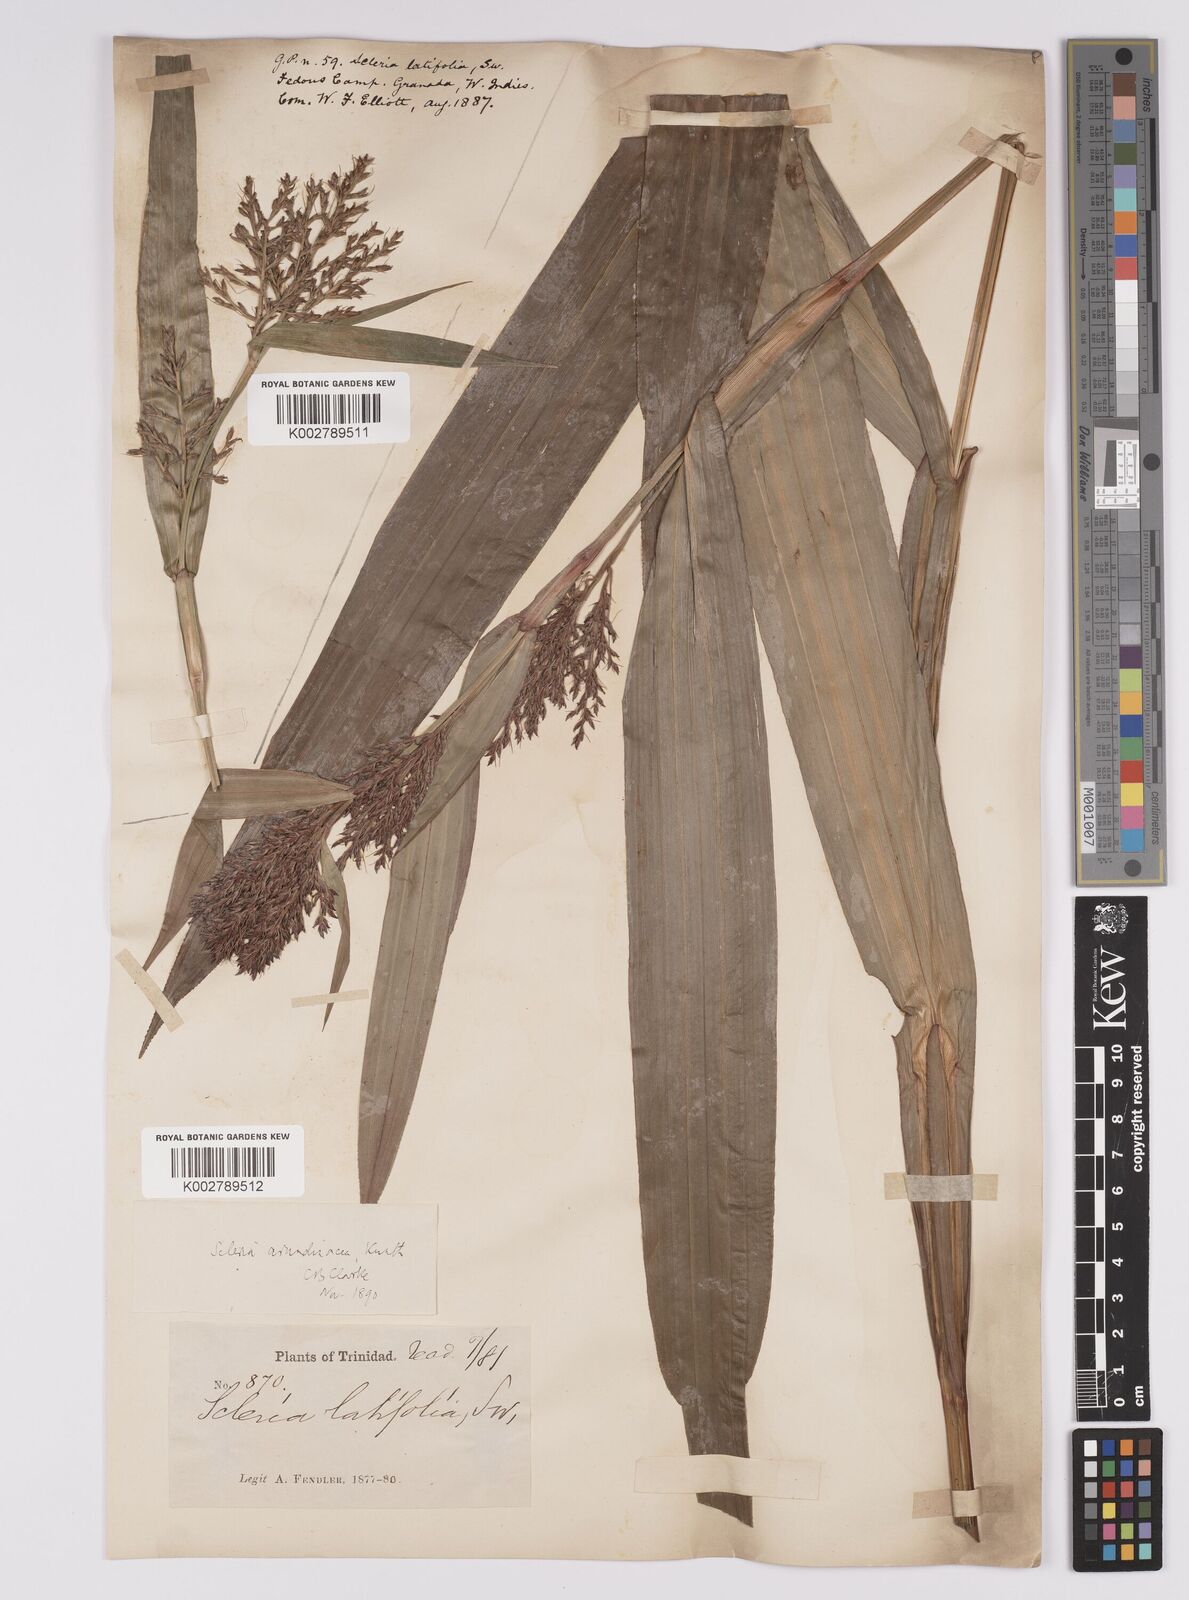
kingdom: Plantae
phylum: Tracheophyta
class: Liliopsida
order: Poales
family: Cyperaceae
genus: Scleria
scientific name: Scleria latifolia
